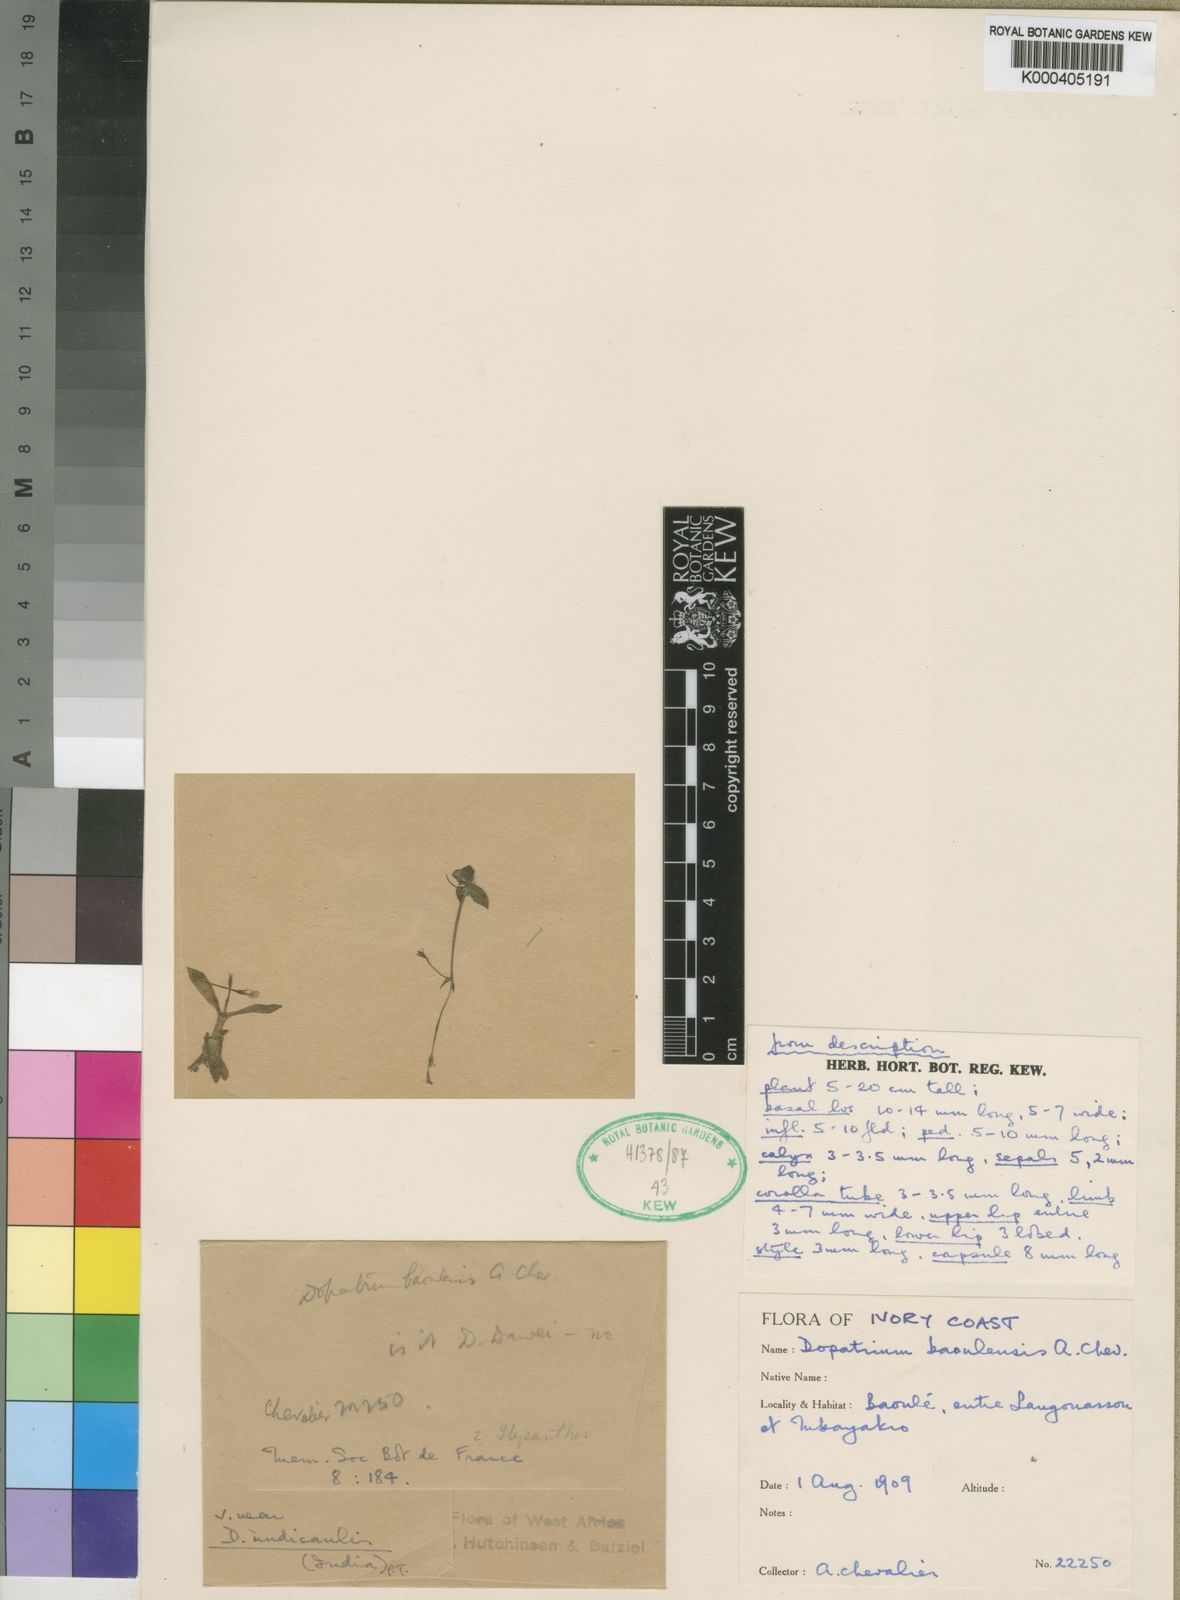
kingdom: Plantae
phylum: Tracheophyta
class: Magnoliopsida
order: Lamiales
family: Plantaginaceae
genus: Dopatrium
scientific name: Dopatrium baoulense
